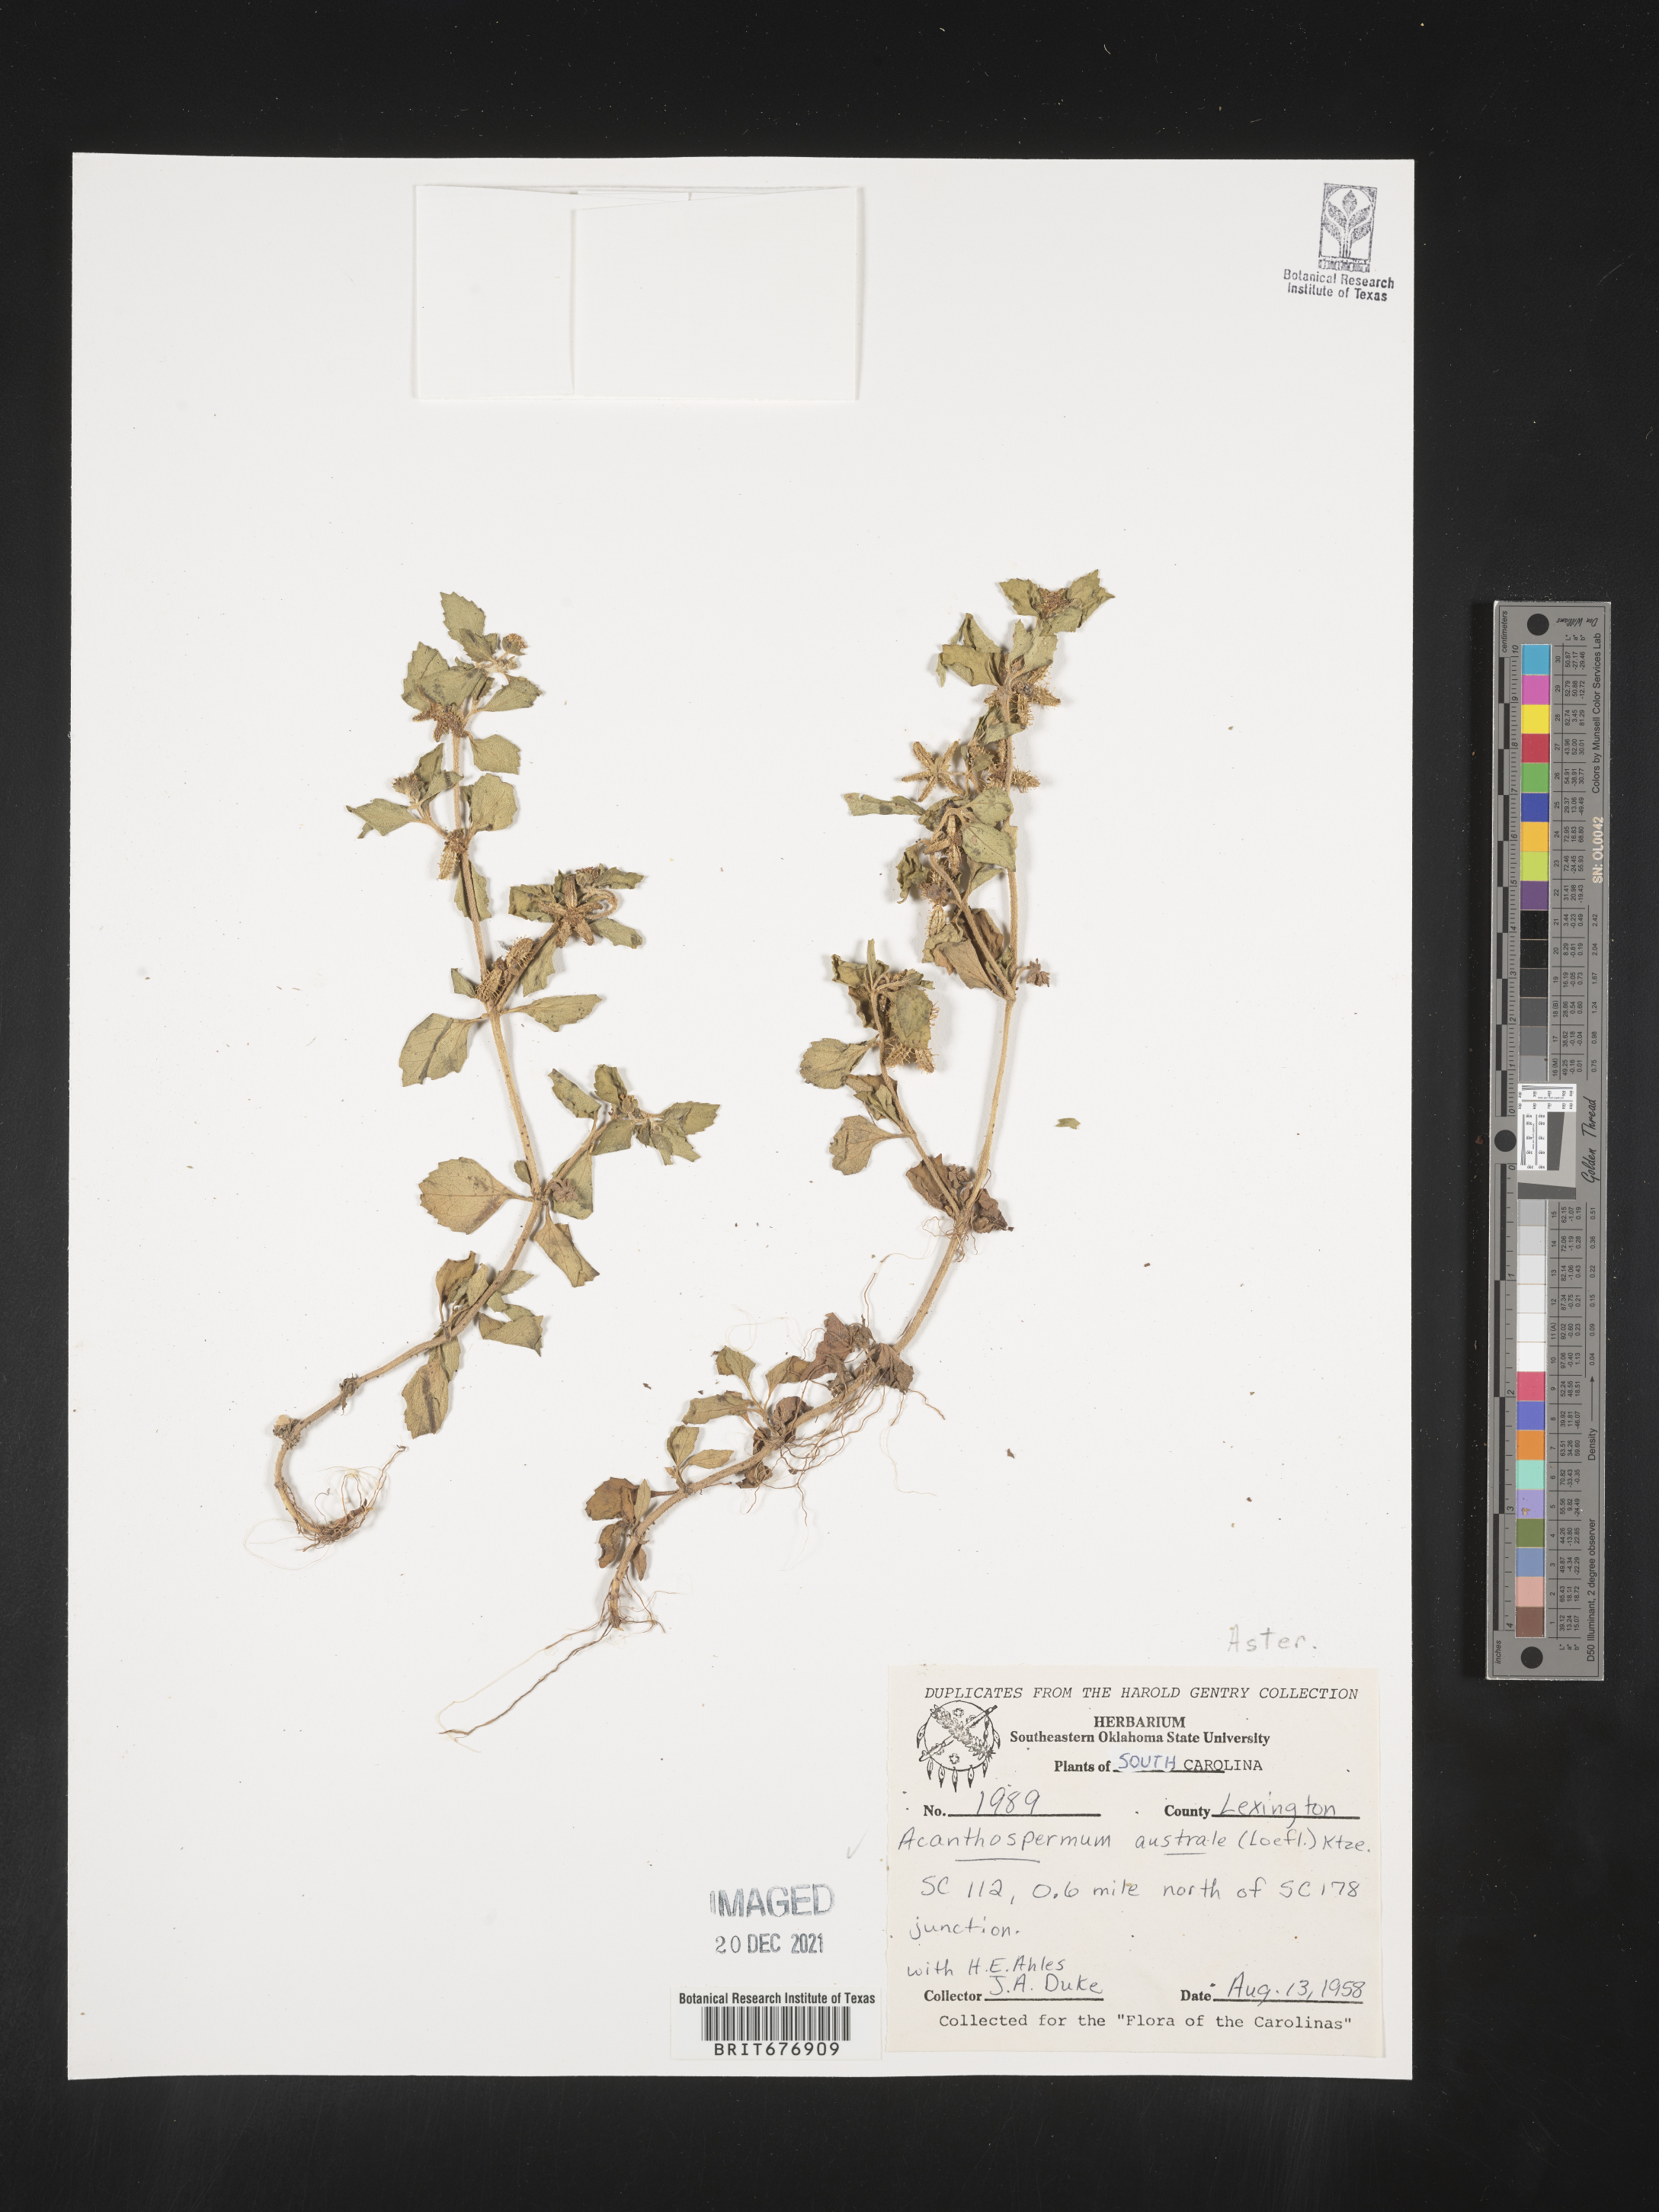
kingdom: Plantae
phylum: Tracheophyta
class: Magnoliopsida
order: Asterales
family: Asteraceae
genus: Acanthospermum
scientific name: Acanthospermum australe
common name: Paraguayan starbur
